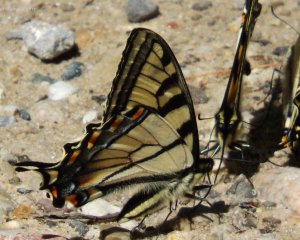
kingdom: Animalia
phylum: Arthropoda
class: Insecta
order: Lepidoptera
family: Papilionidae
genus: Pterourus
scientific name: Pterourus canadensis
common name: Canadian Tiger Swallowtail
